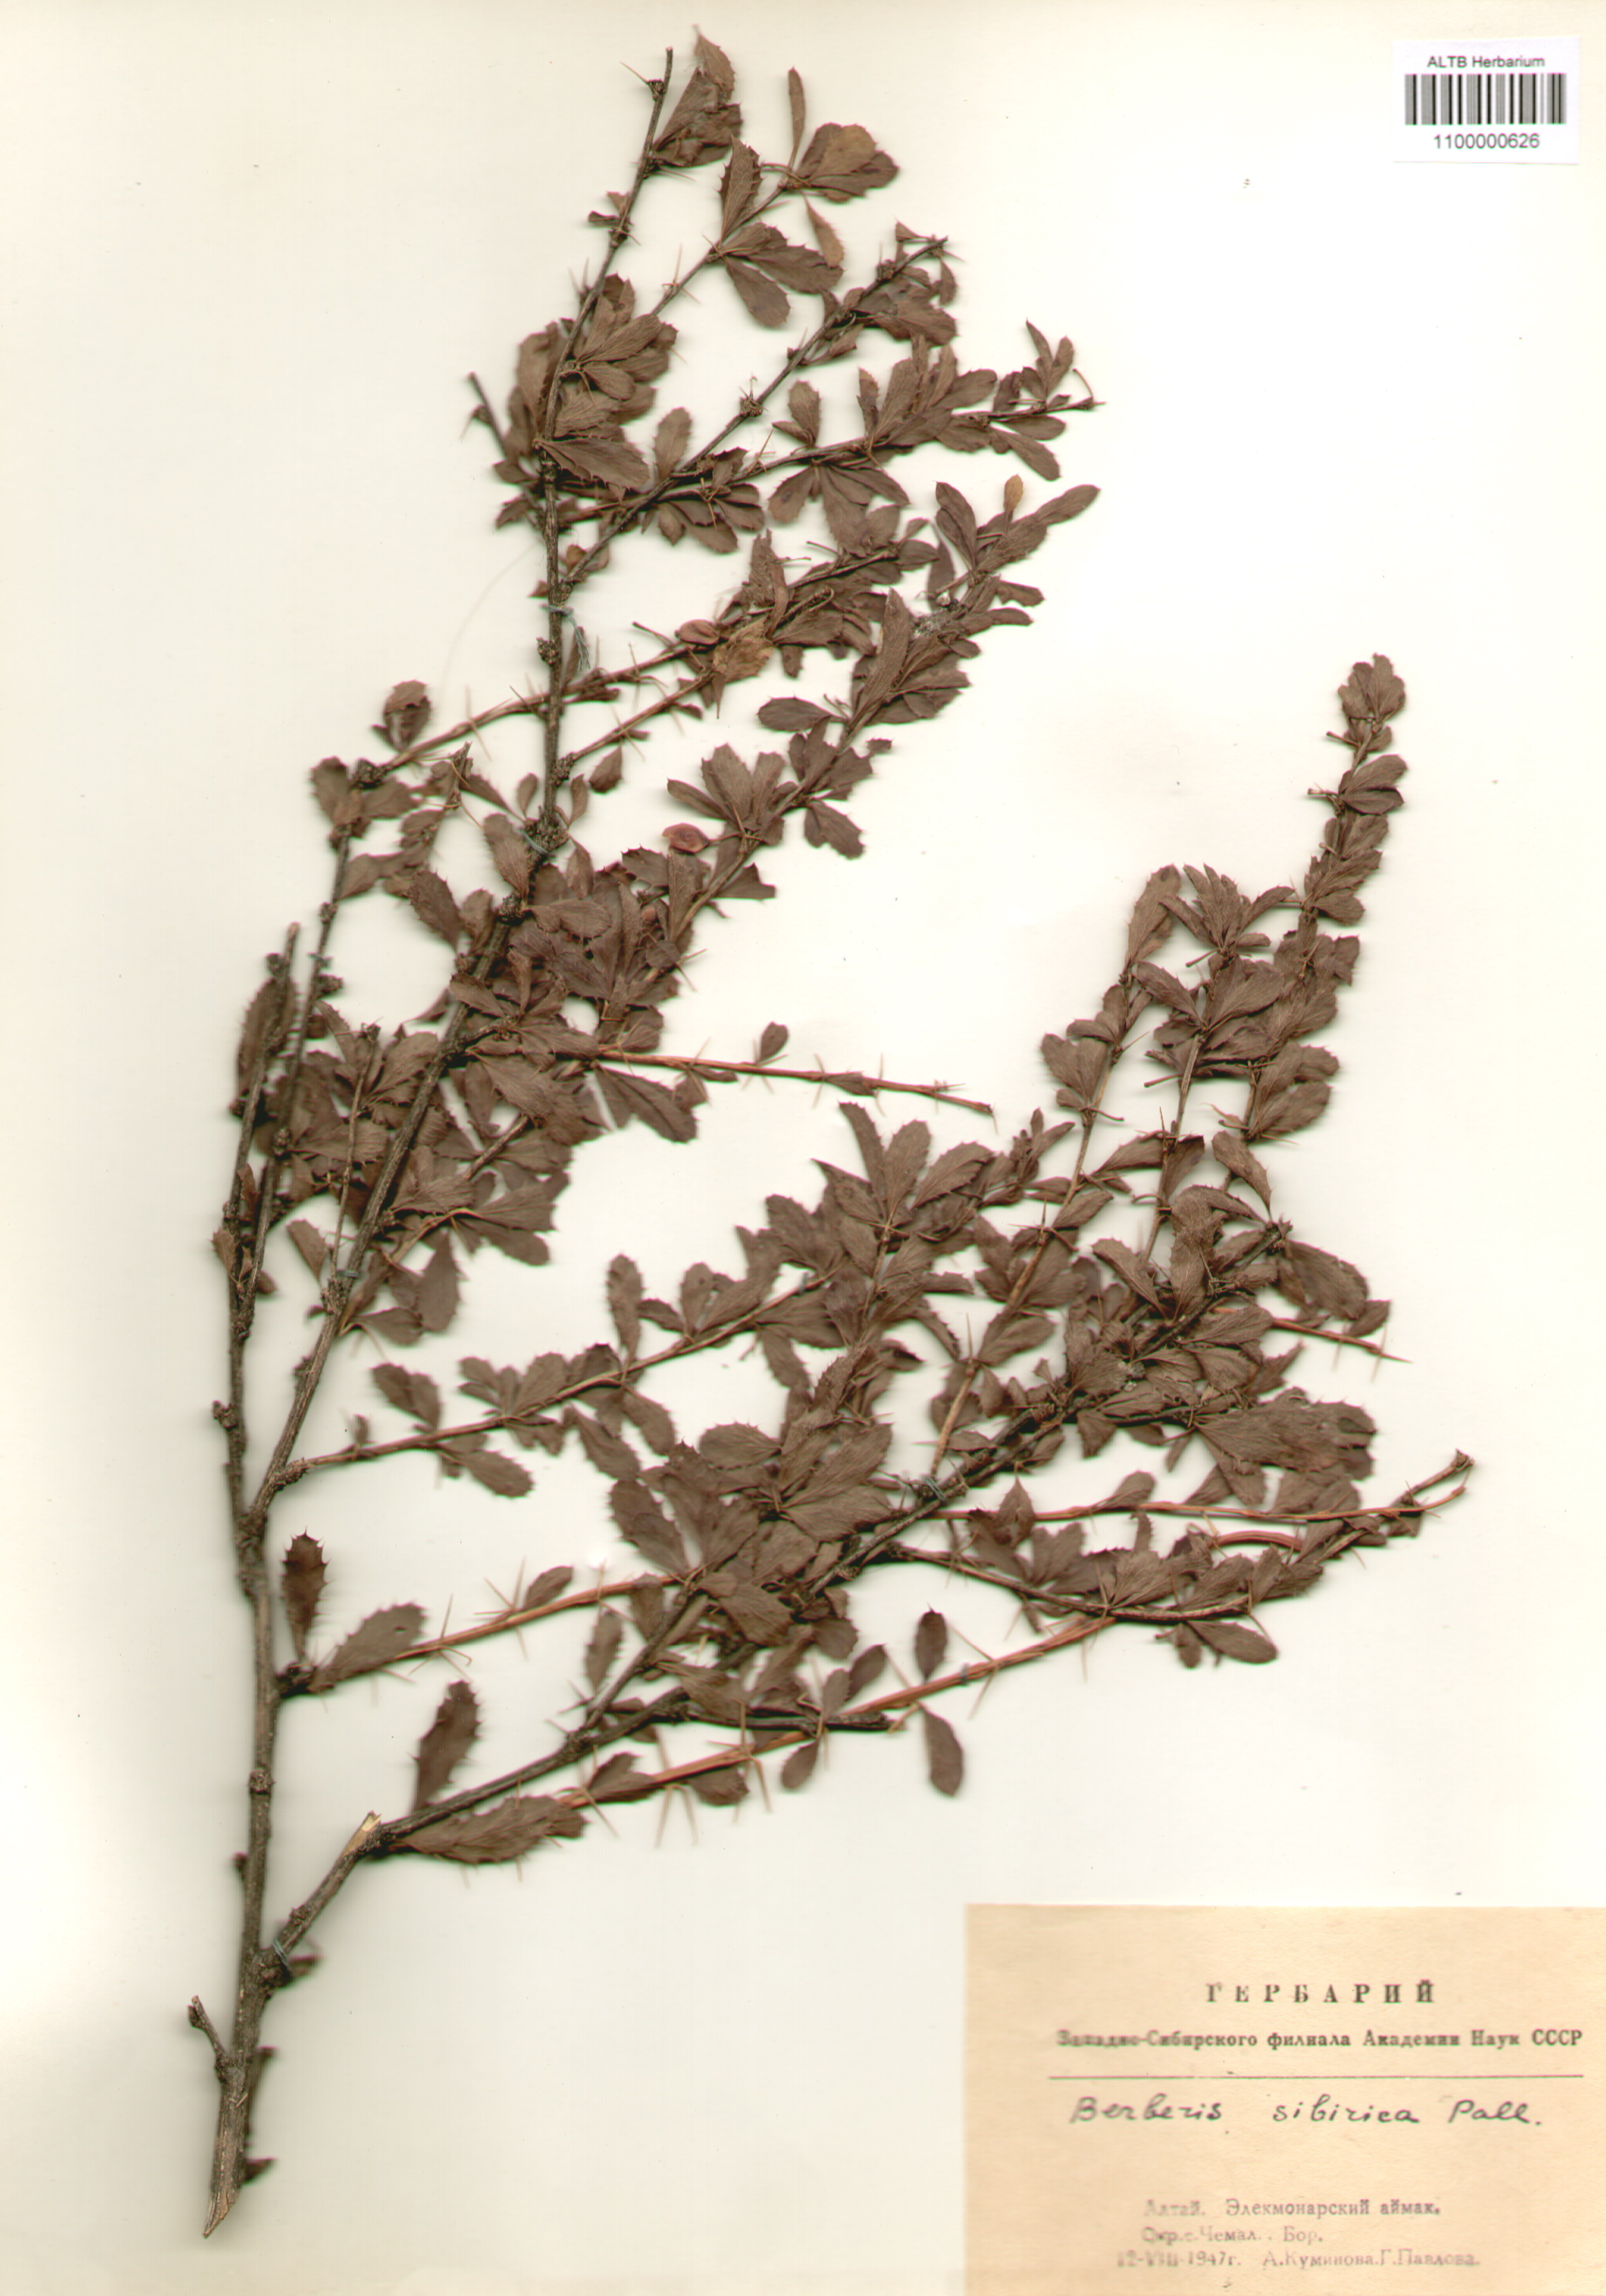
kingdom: Plantae
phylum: Tracheophyta
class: Magnoliopsida
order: Ranunculales
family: Berberidaceae
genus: Berberis
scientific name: Berberis sibirica
